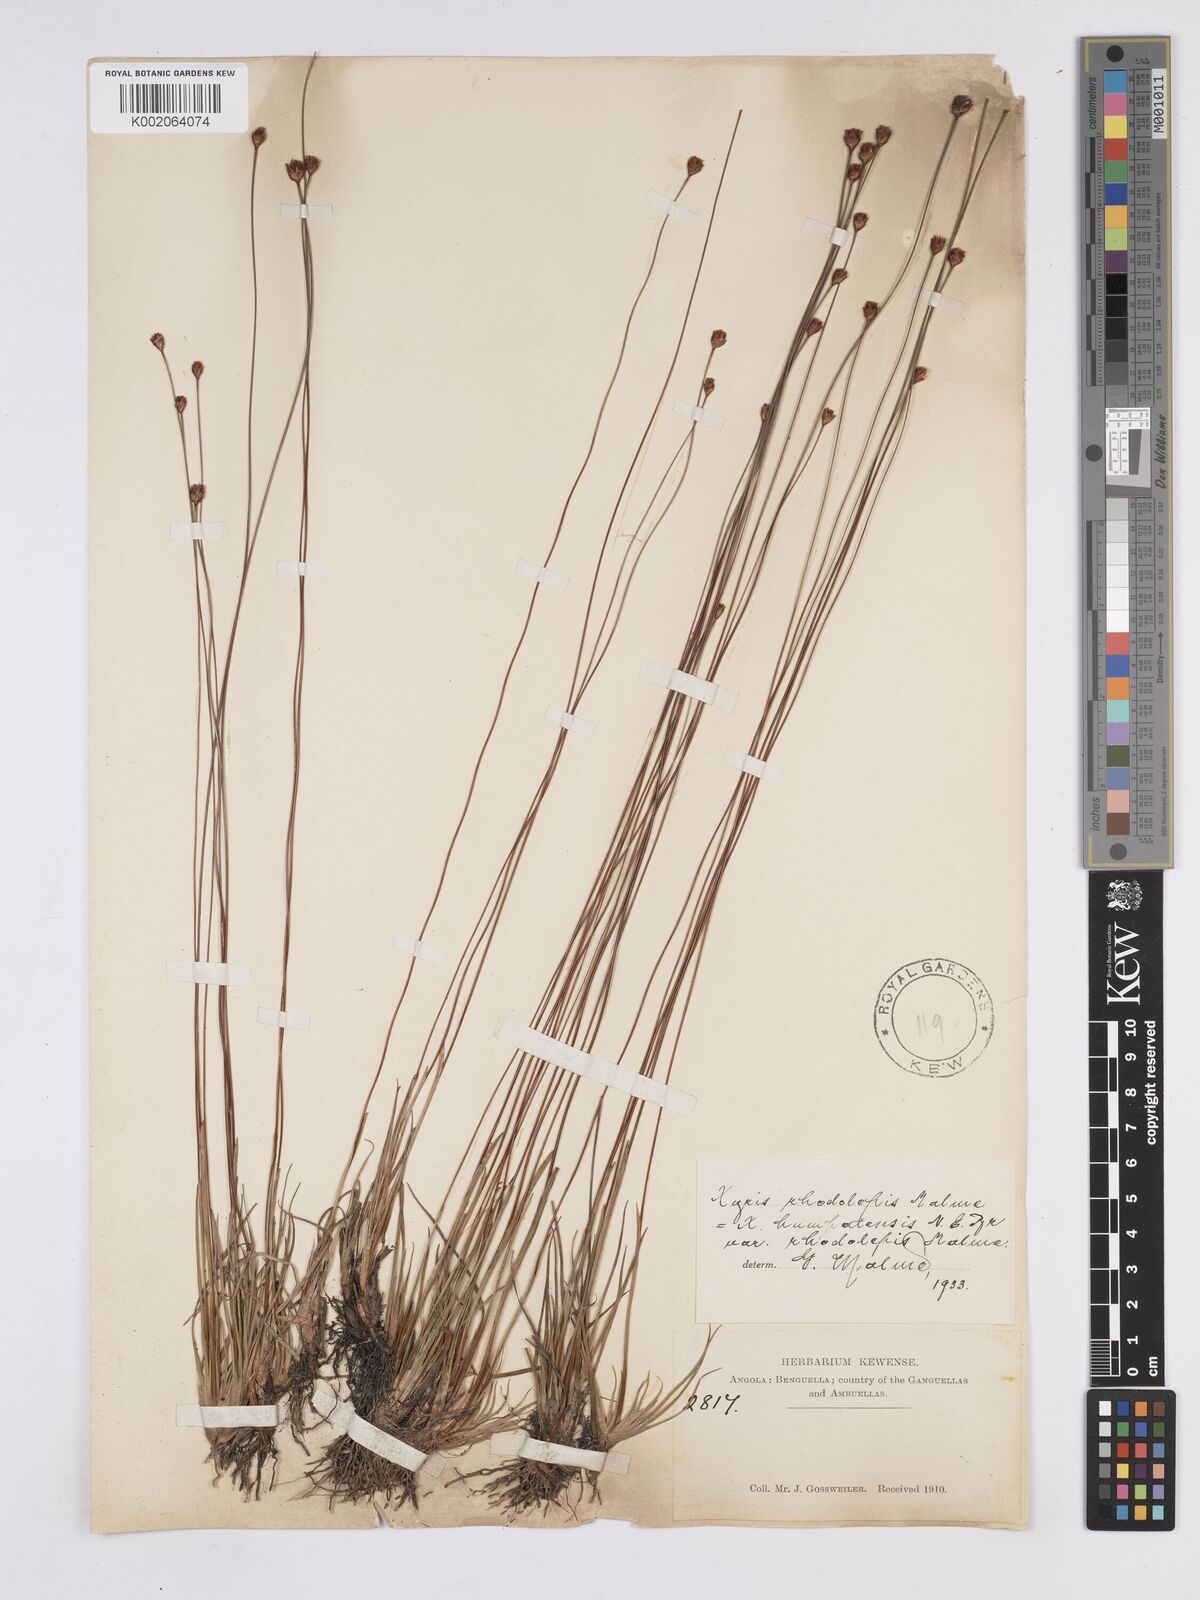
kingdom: Plantae
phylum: Tracheophyta
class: Liliopsida
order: Poales
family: Xyridaceae
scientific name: Xyridaceae
